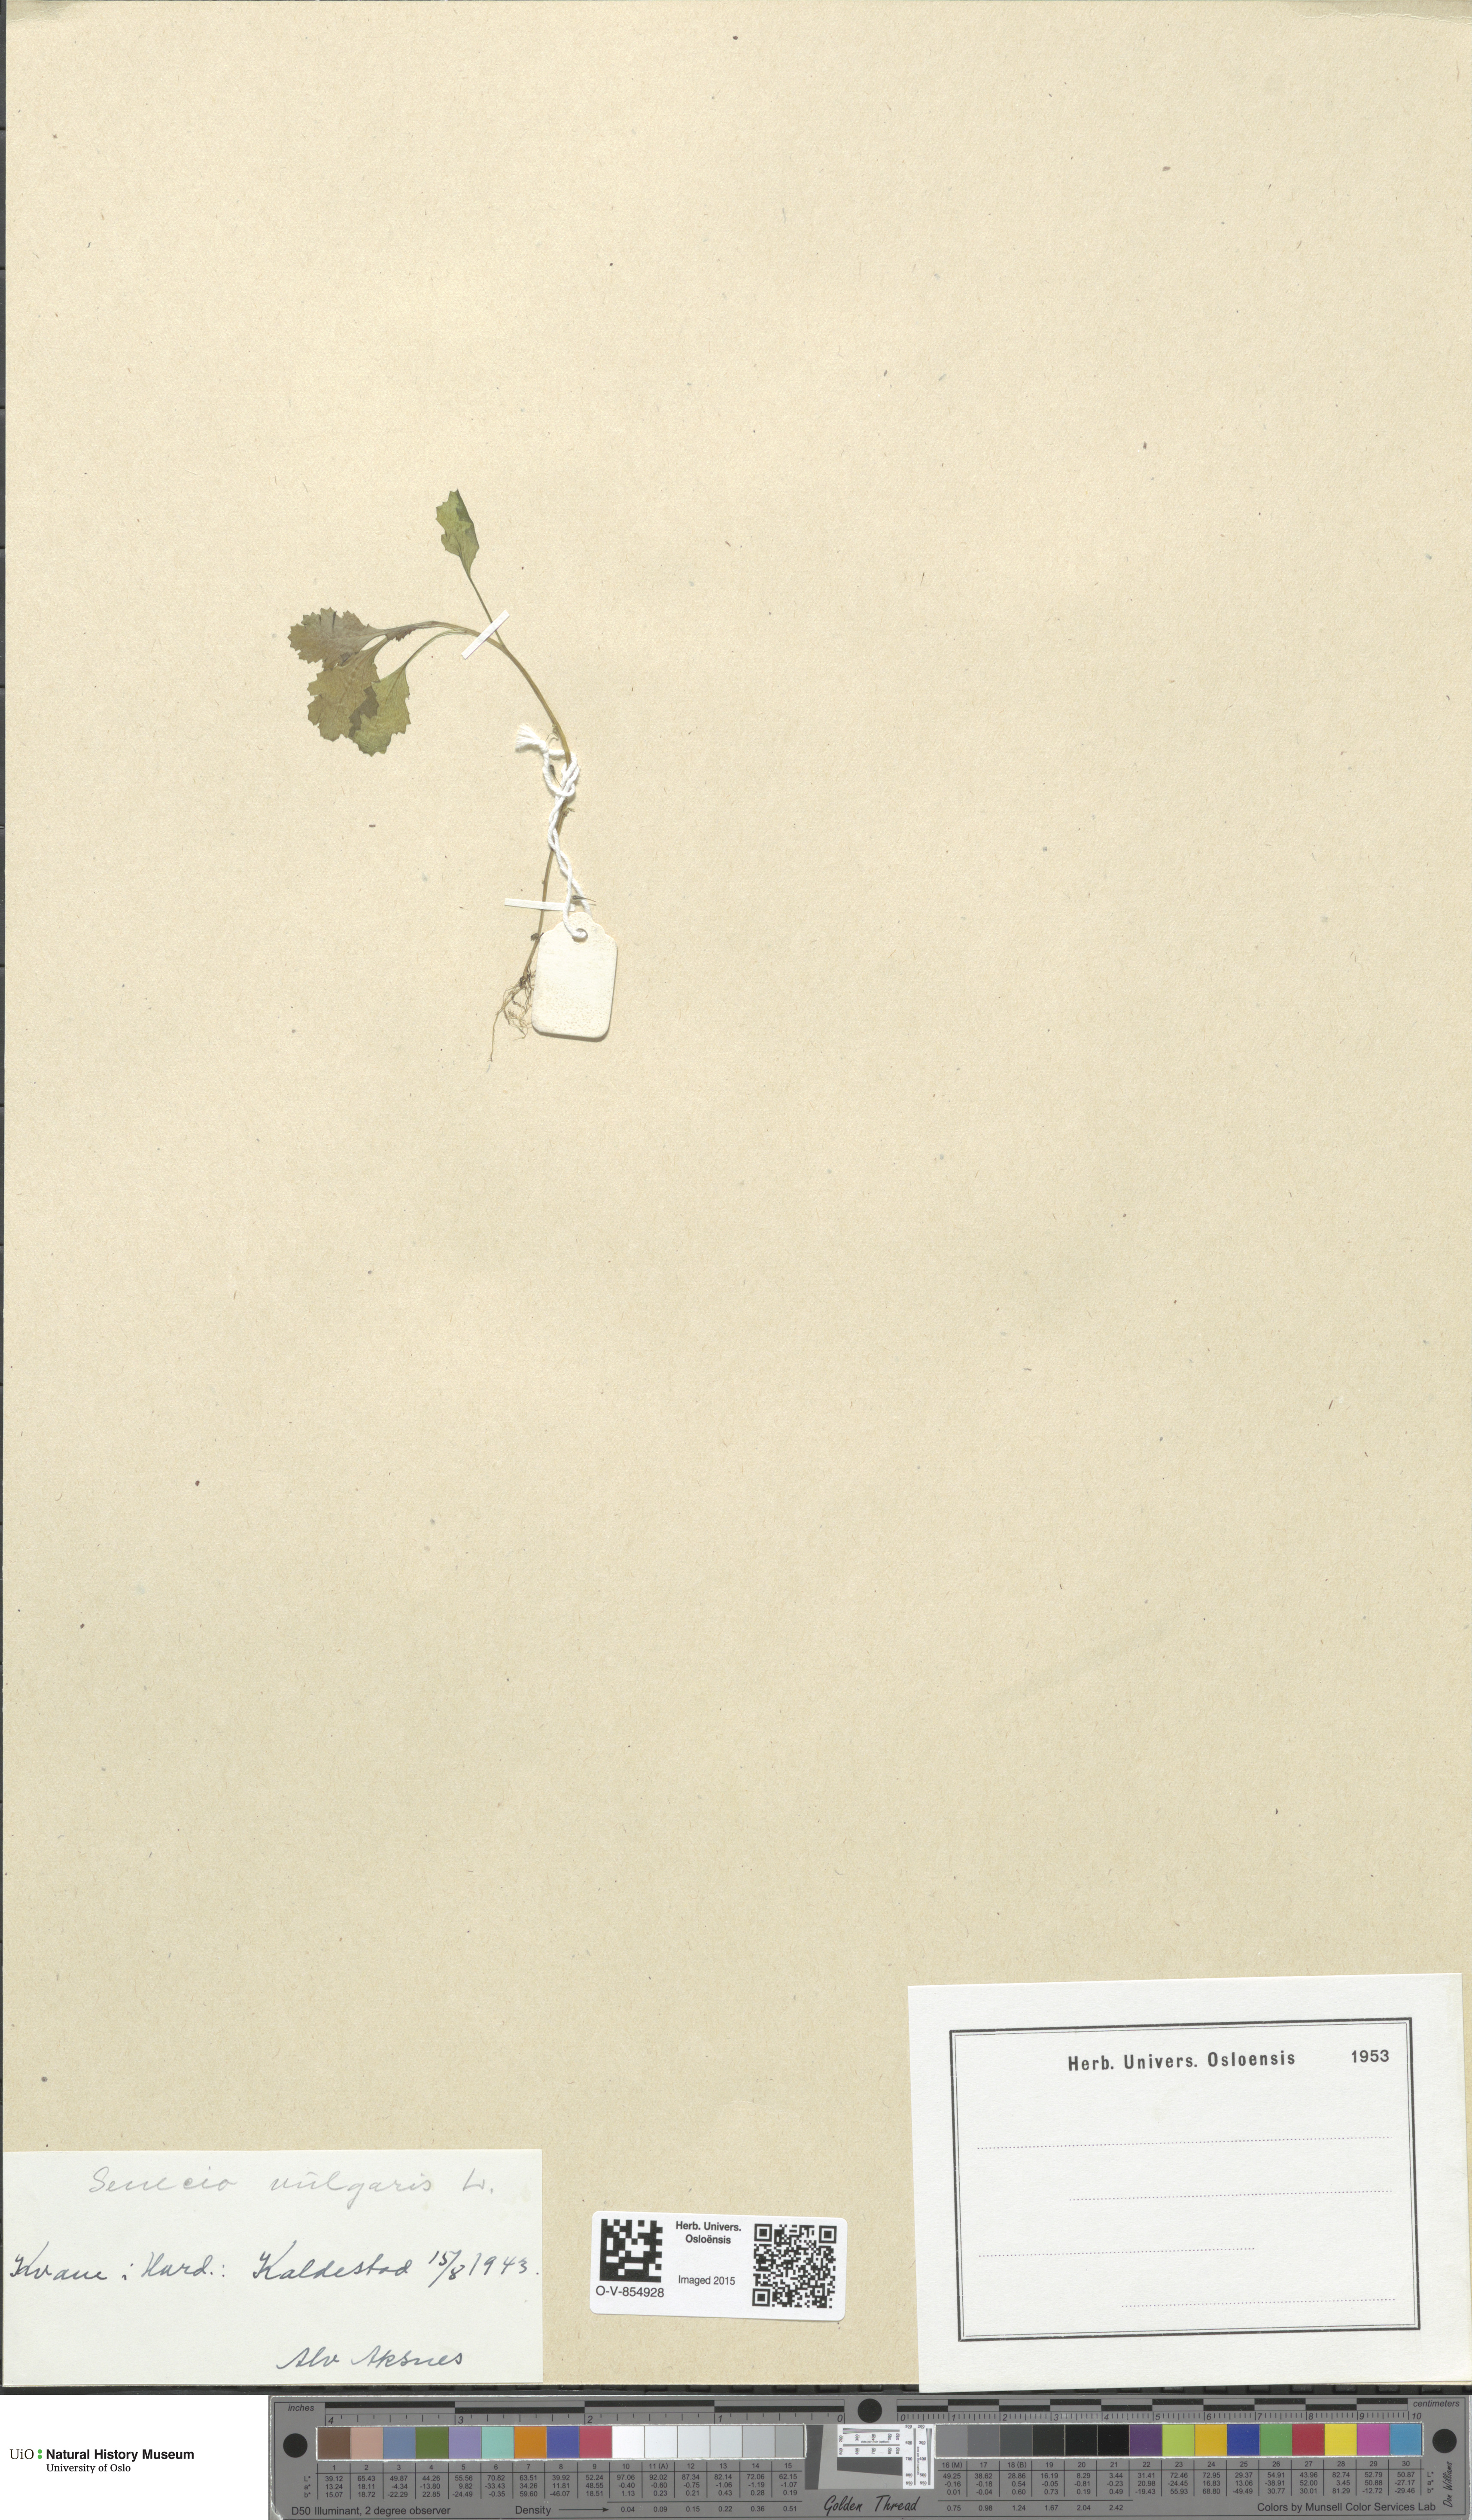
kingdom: Plantae
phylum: Tracheophyta
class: Magnoliopsida
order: Asterales
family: Asteraceae
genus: Senecio
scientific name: Senecio vulgaris
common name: Old-man-in-the-spring
